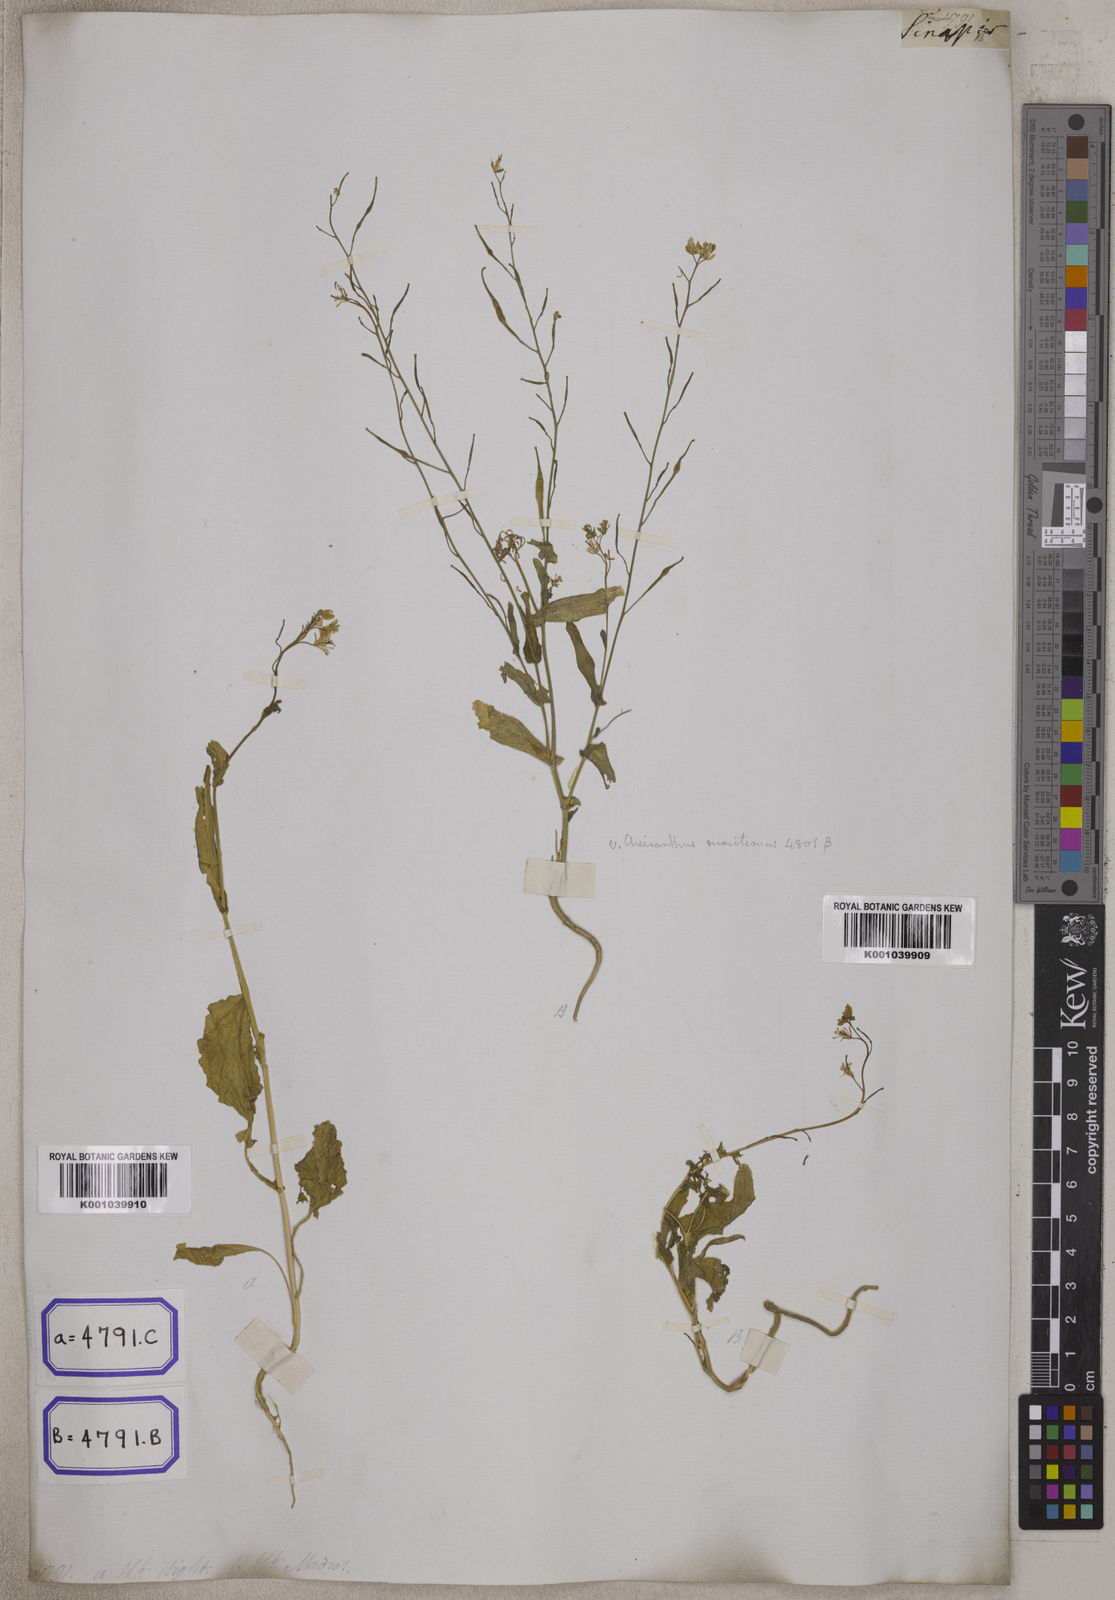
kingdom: Plantae
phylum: Tracheophyta
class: Magnoliopsida
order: Brassicales
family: Brassicaceae
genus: Brassica
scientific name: Brassica rapa
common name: Field mustard
